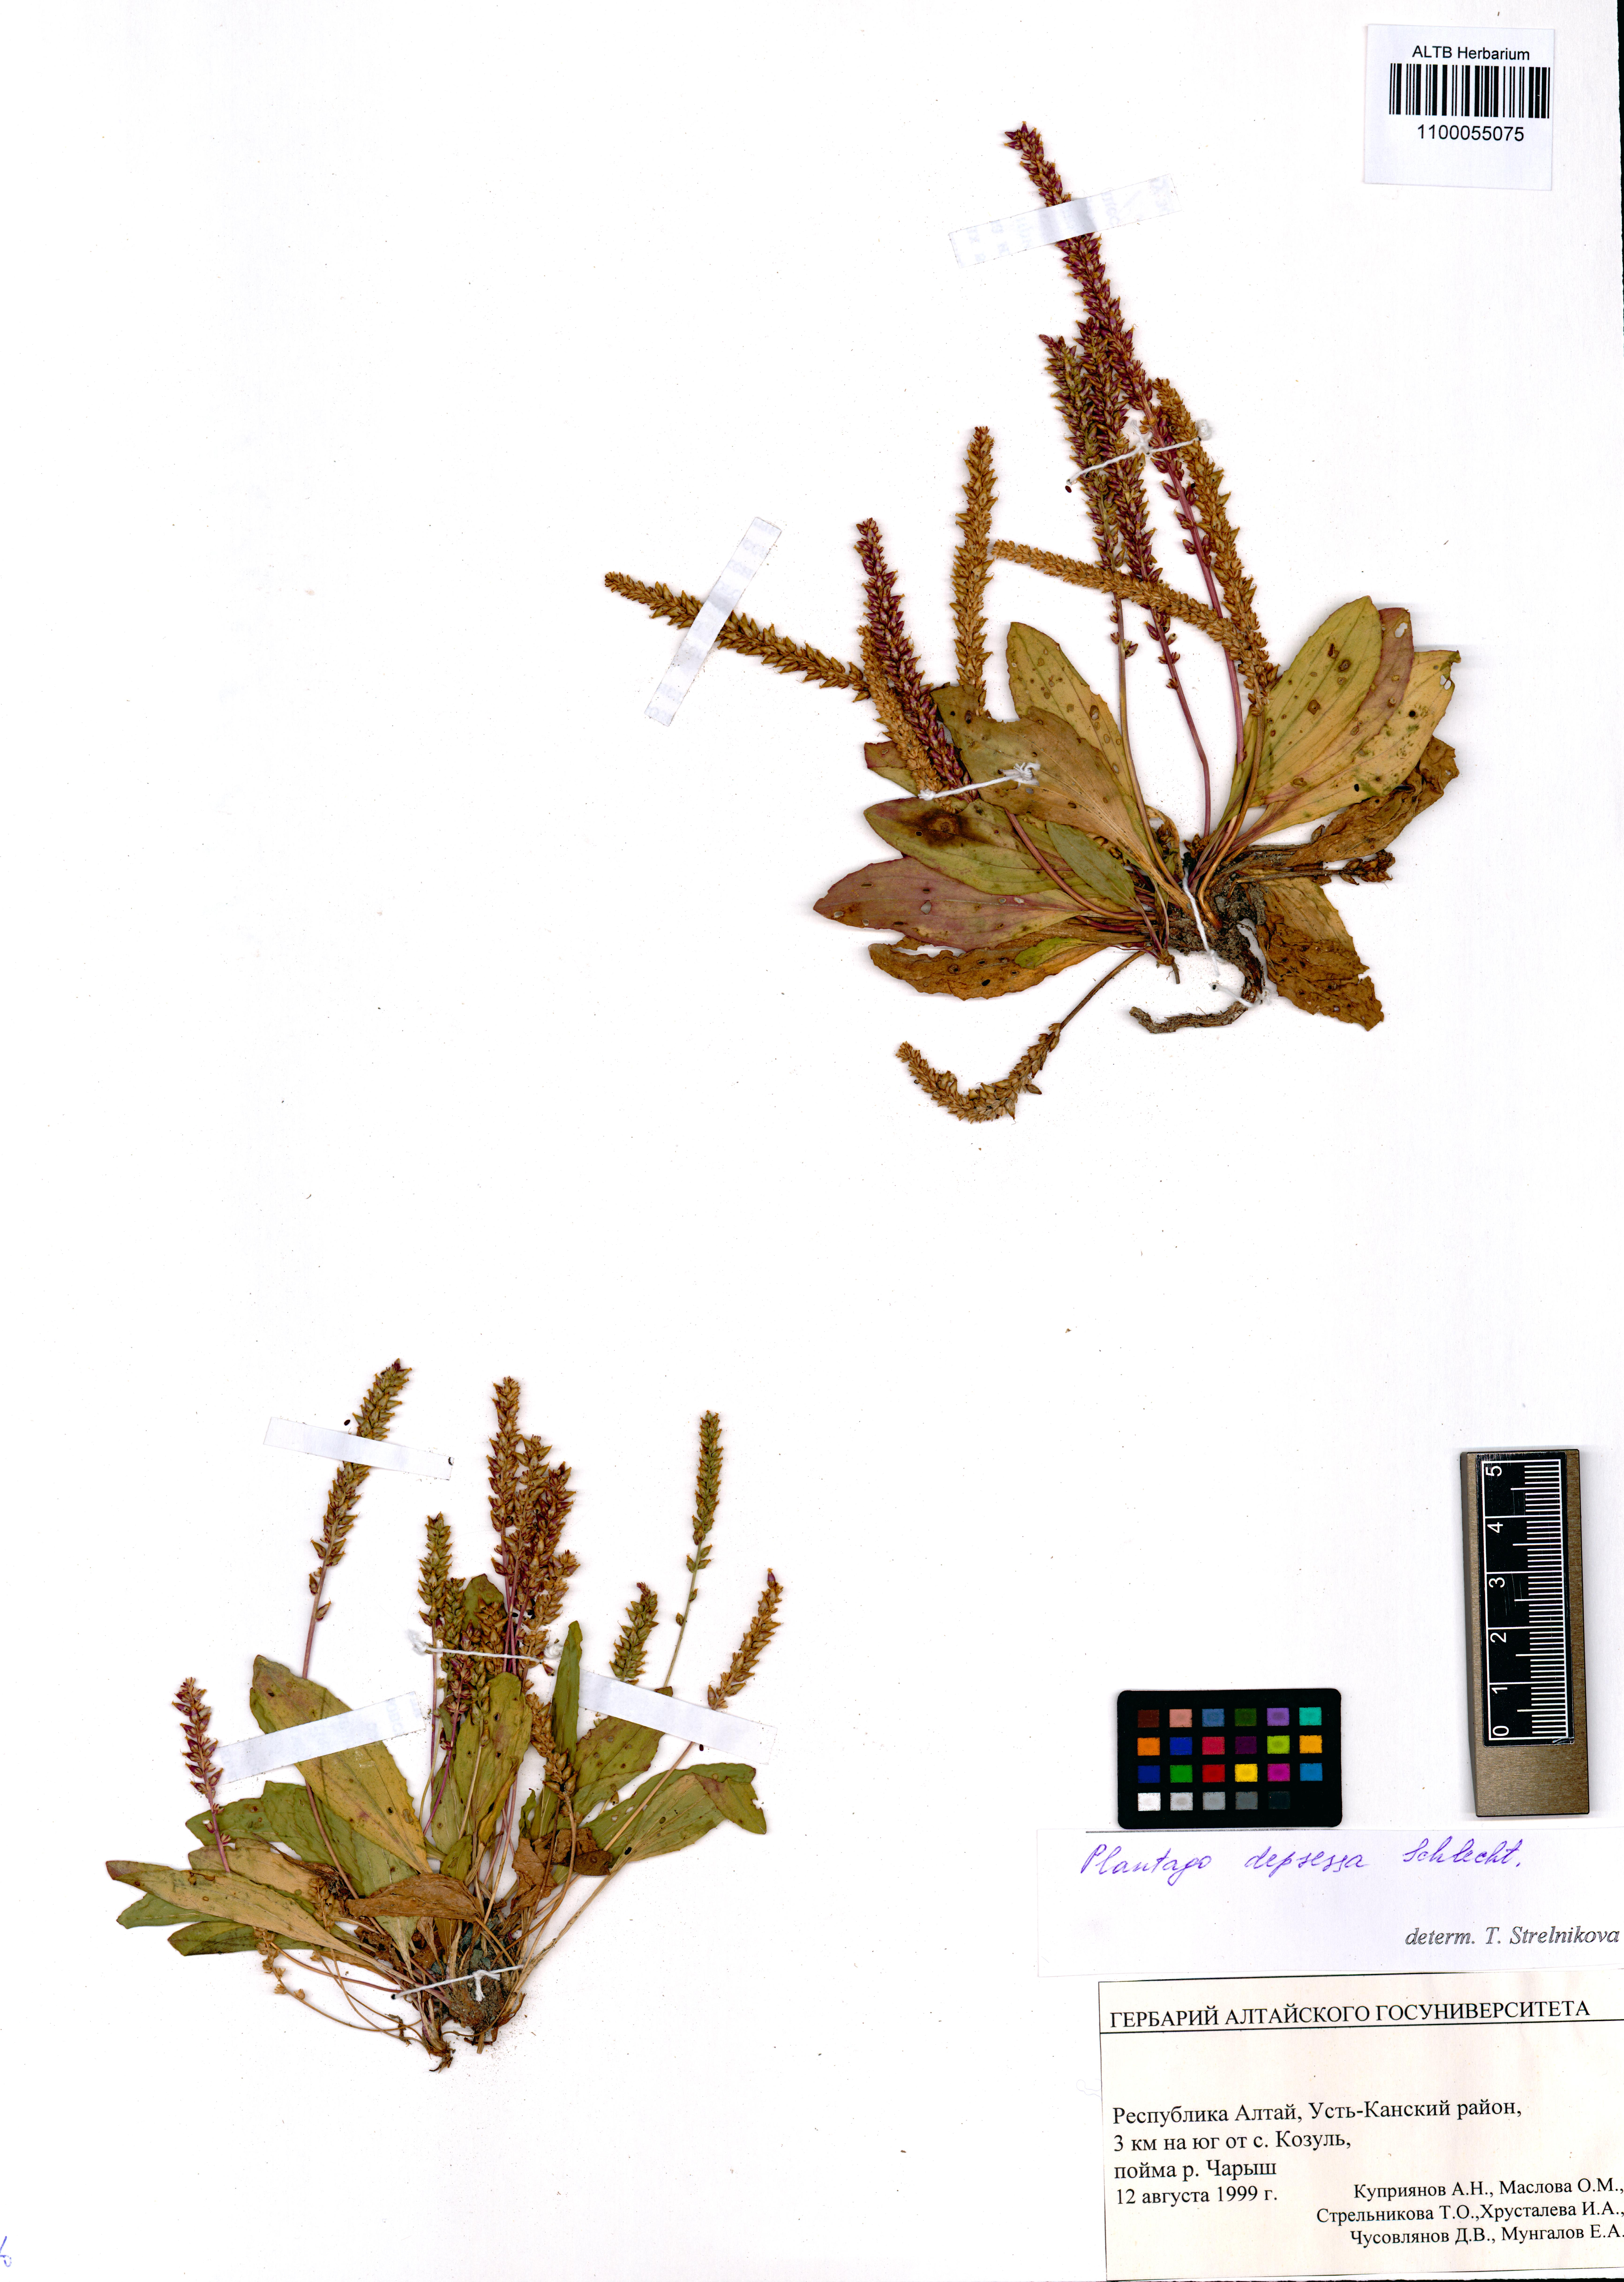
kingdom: Plantae
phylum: Tracheophyta
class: Magnoliopsida
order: Lamiales
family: Plantaginaceae
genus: Plantago
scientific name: Plantago depressa
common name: Depressed plantain
